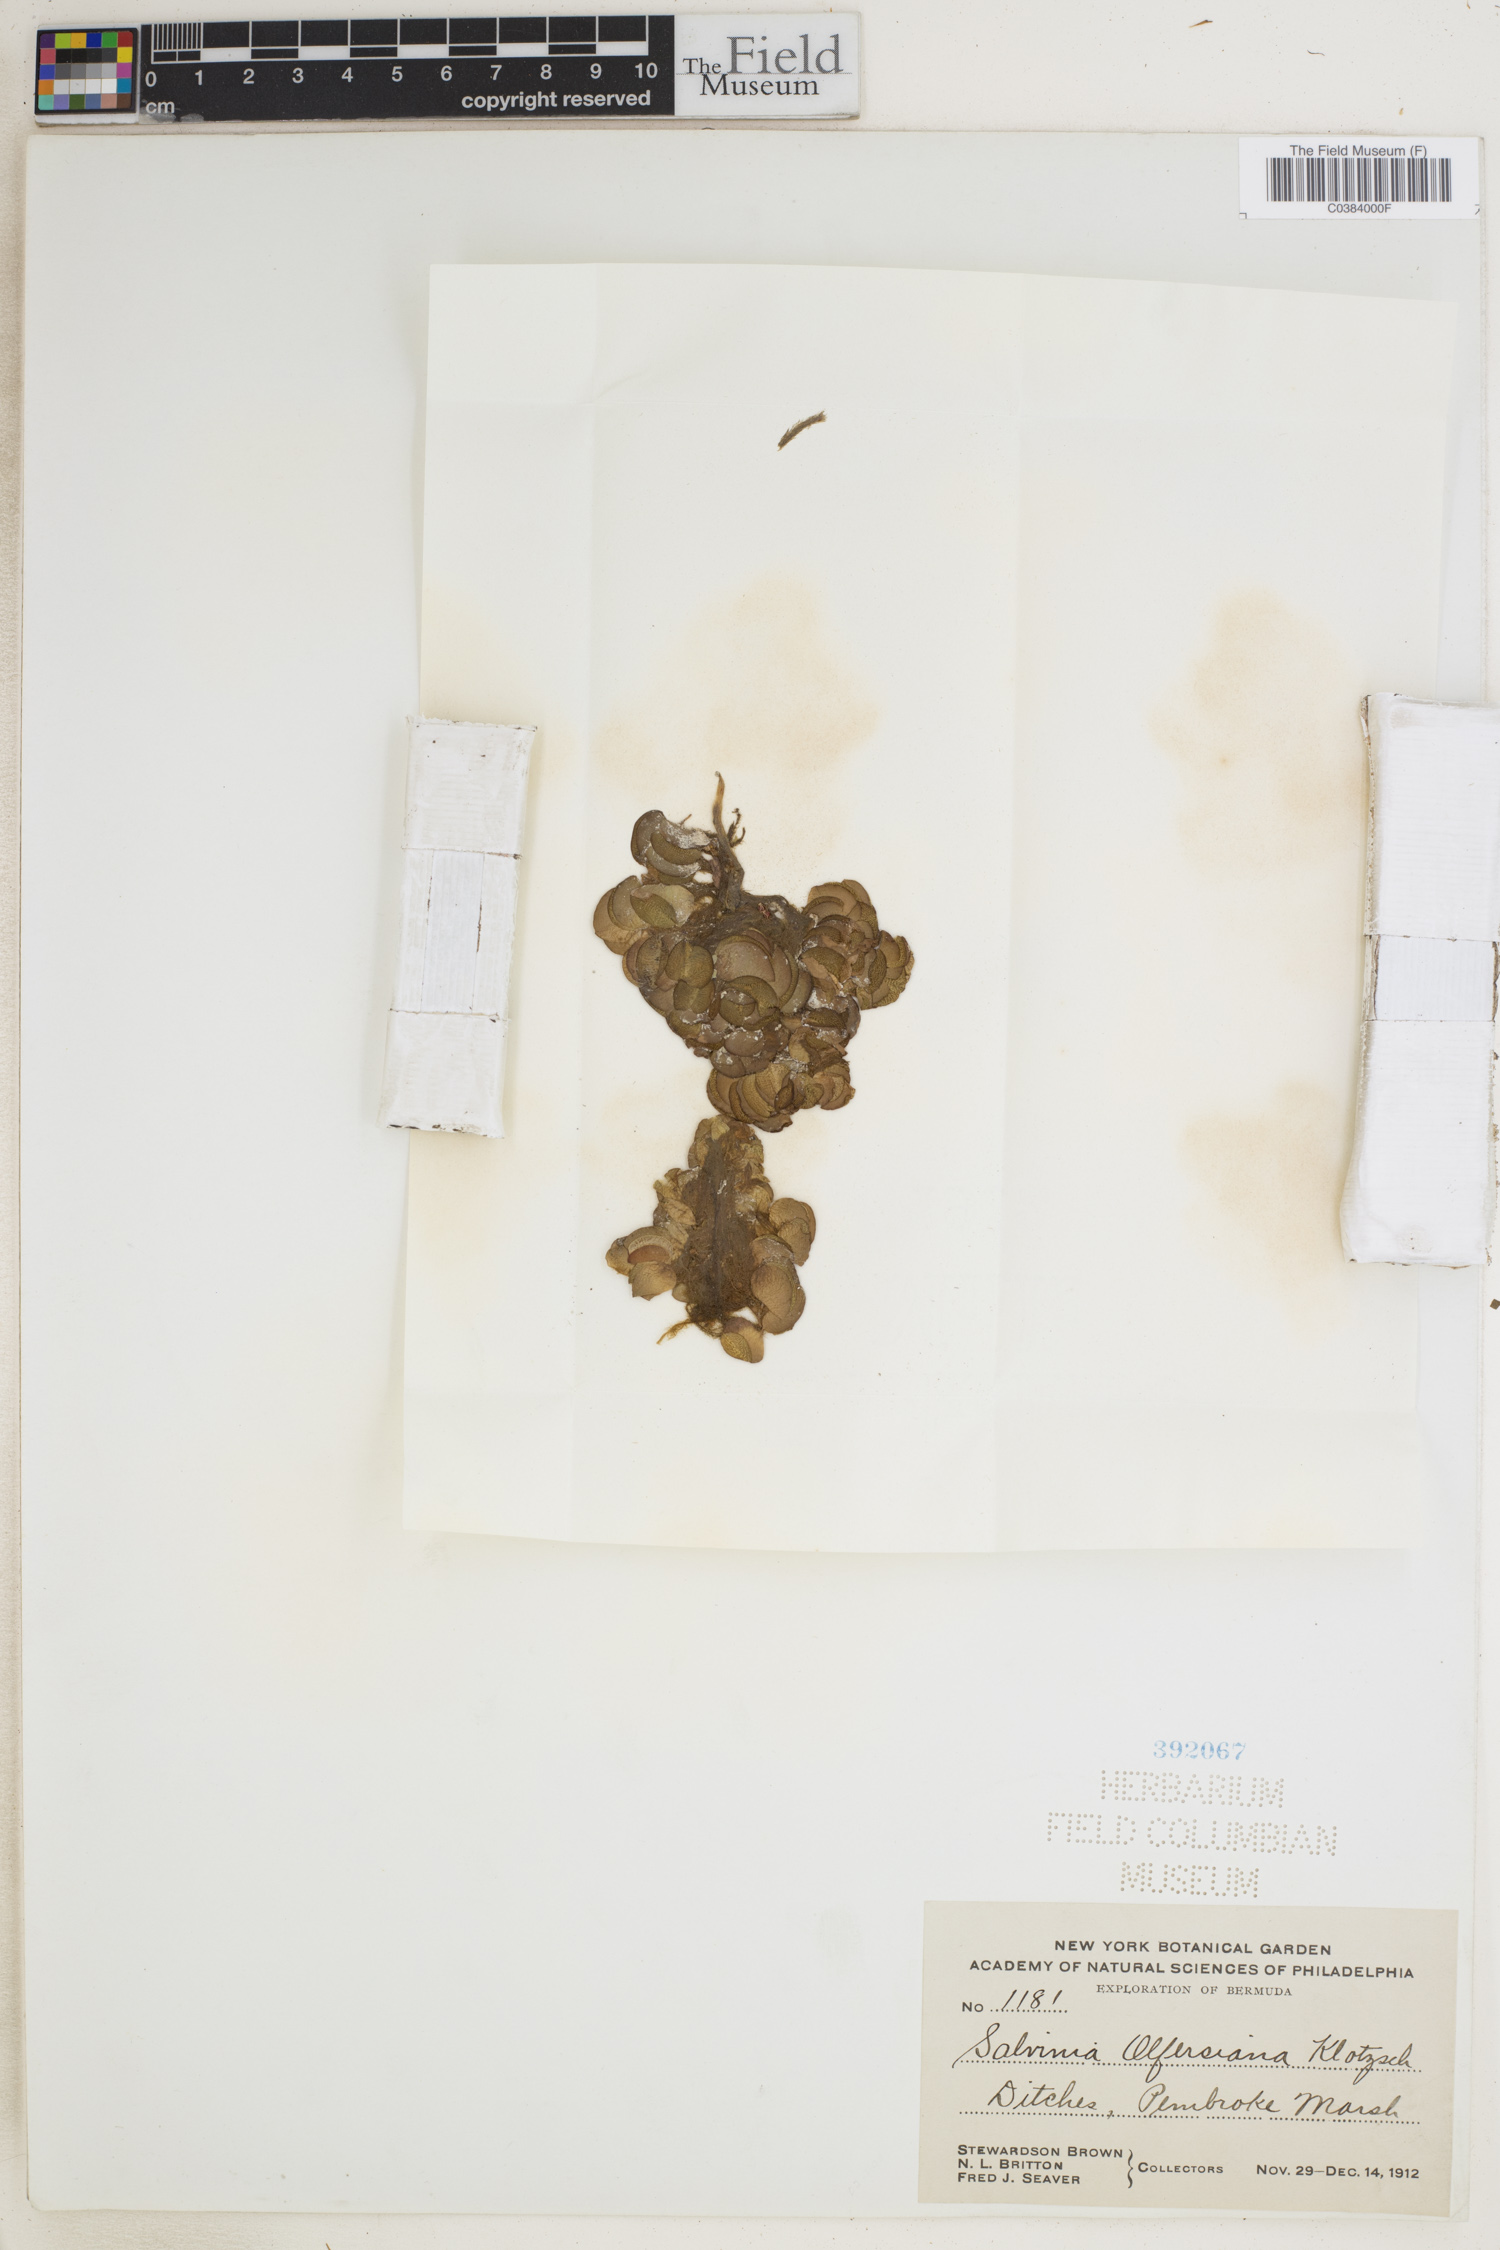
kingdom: Plantae
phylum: Tracheophyta
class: Polypodiopsida
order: Salviniales
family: Salviniaceae
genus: Salvinia
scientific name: Salvinia auriculata
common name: African payal
